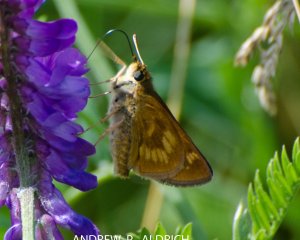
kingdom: Animalia
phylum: Arthropoda
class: Insecta
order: Lepidoptera
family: Hesperiidae
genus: Polites
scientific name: Polites
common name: Long Dash Skipper
